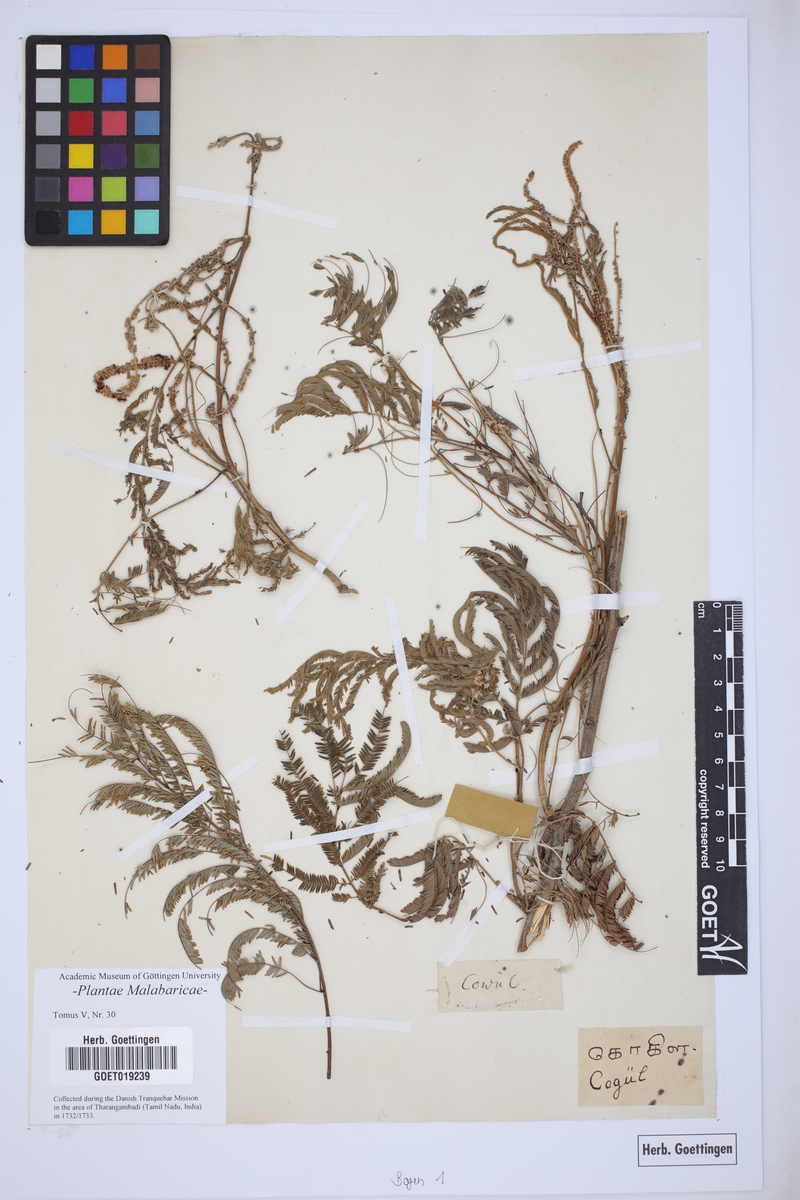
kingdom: Plantae
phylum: Tracheophyta
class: Magnoliopsida
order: Fabales
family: Fabaceae
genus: Senegalia
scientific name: Senegalia caesia
